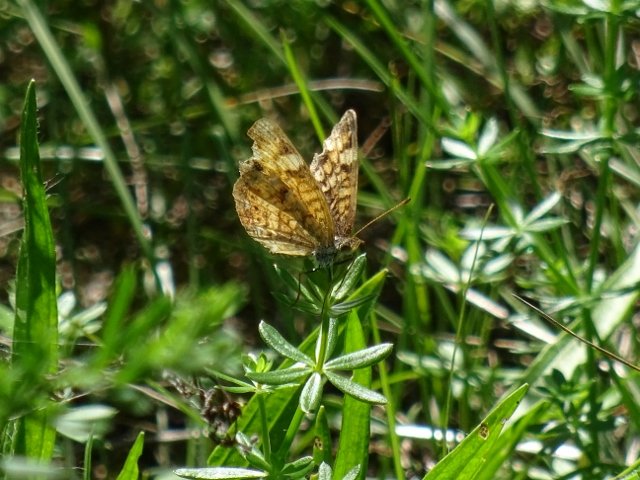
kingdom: Animalia
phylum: Arthropoda
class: Insecta
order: Lepidoptera
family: Nymphalidae
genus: Phyciodes
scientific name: Phyciodes tharos
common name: Pearl Crescent
